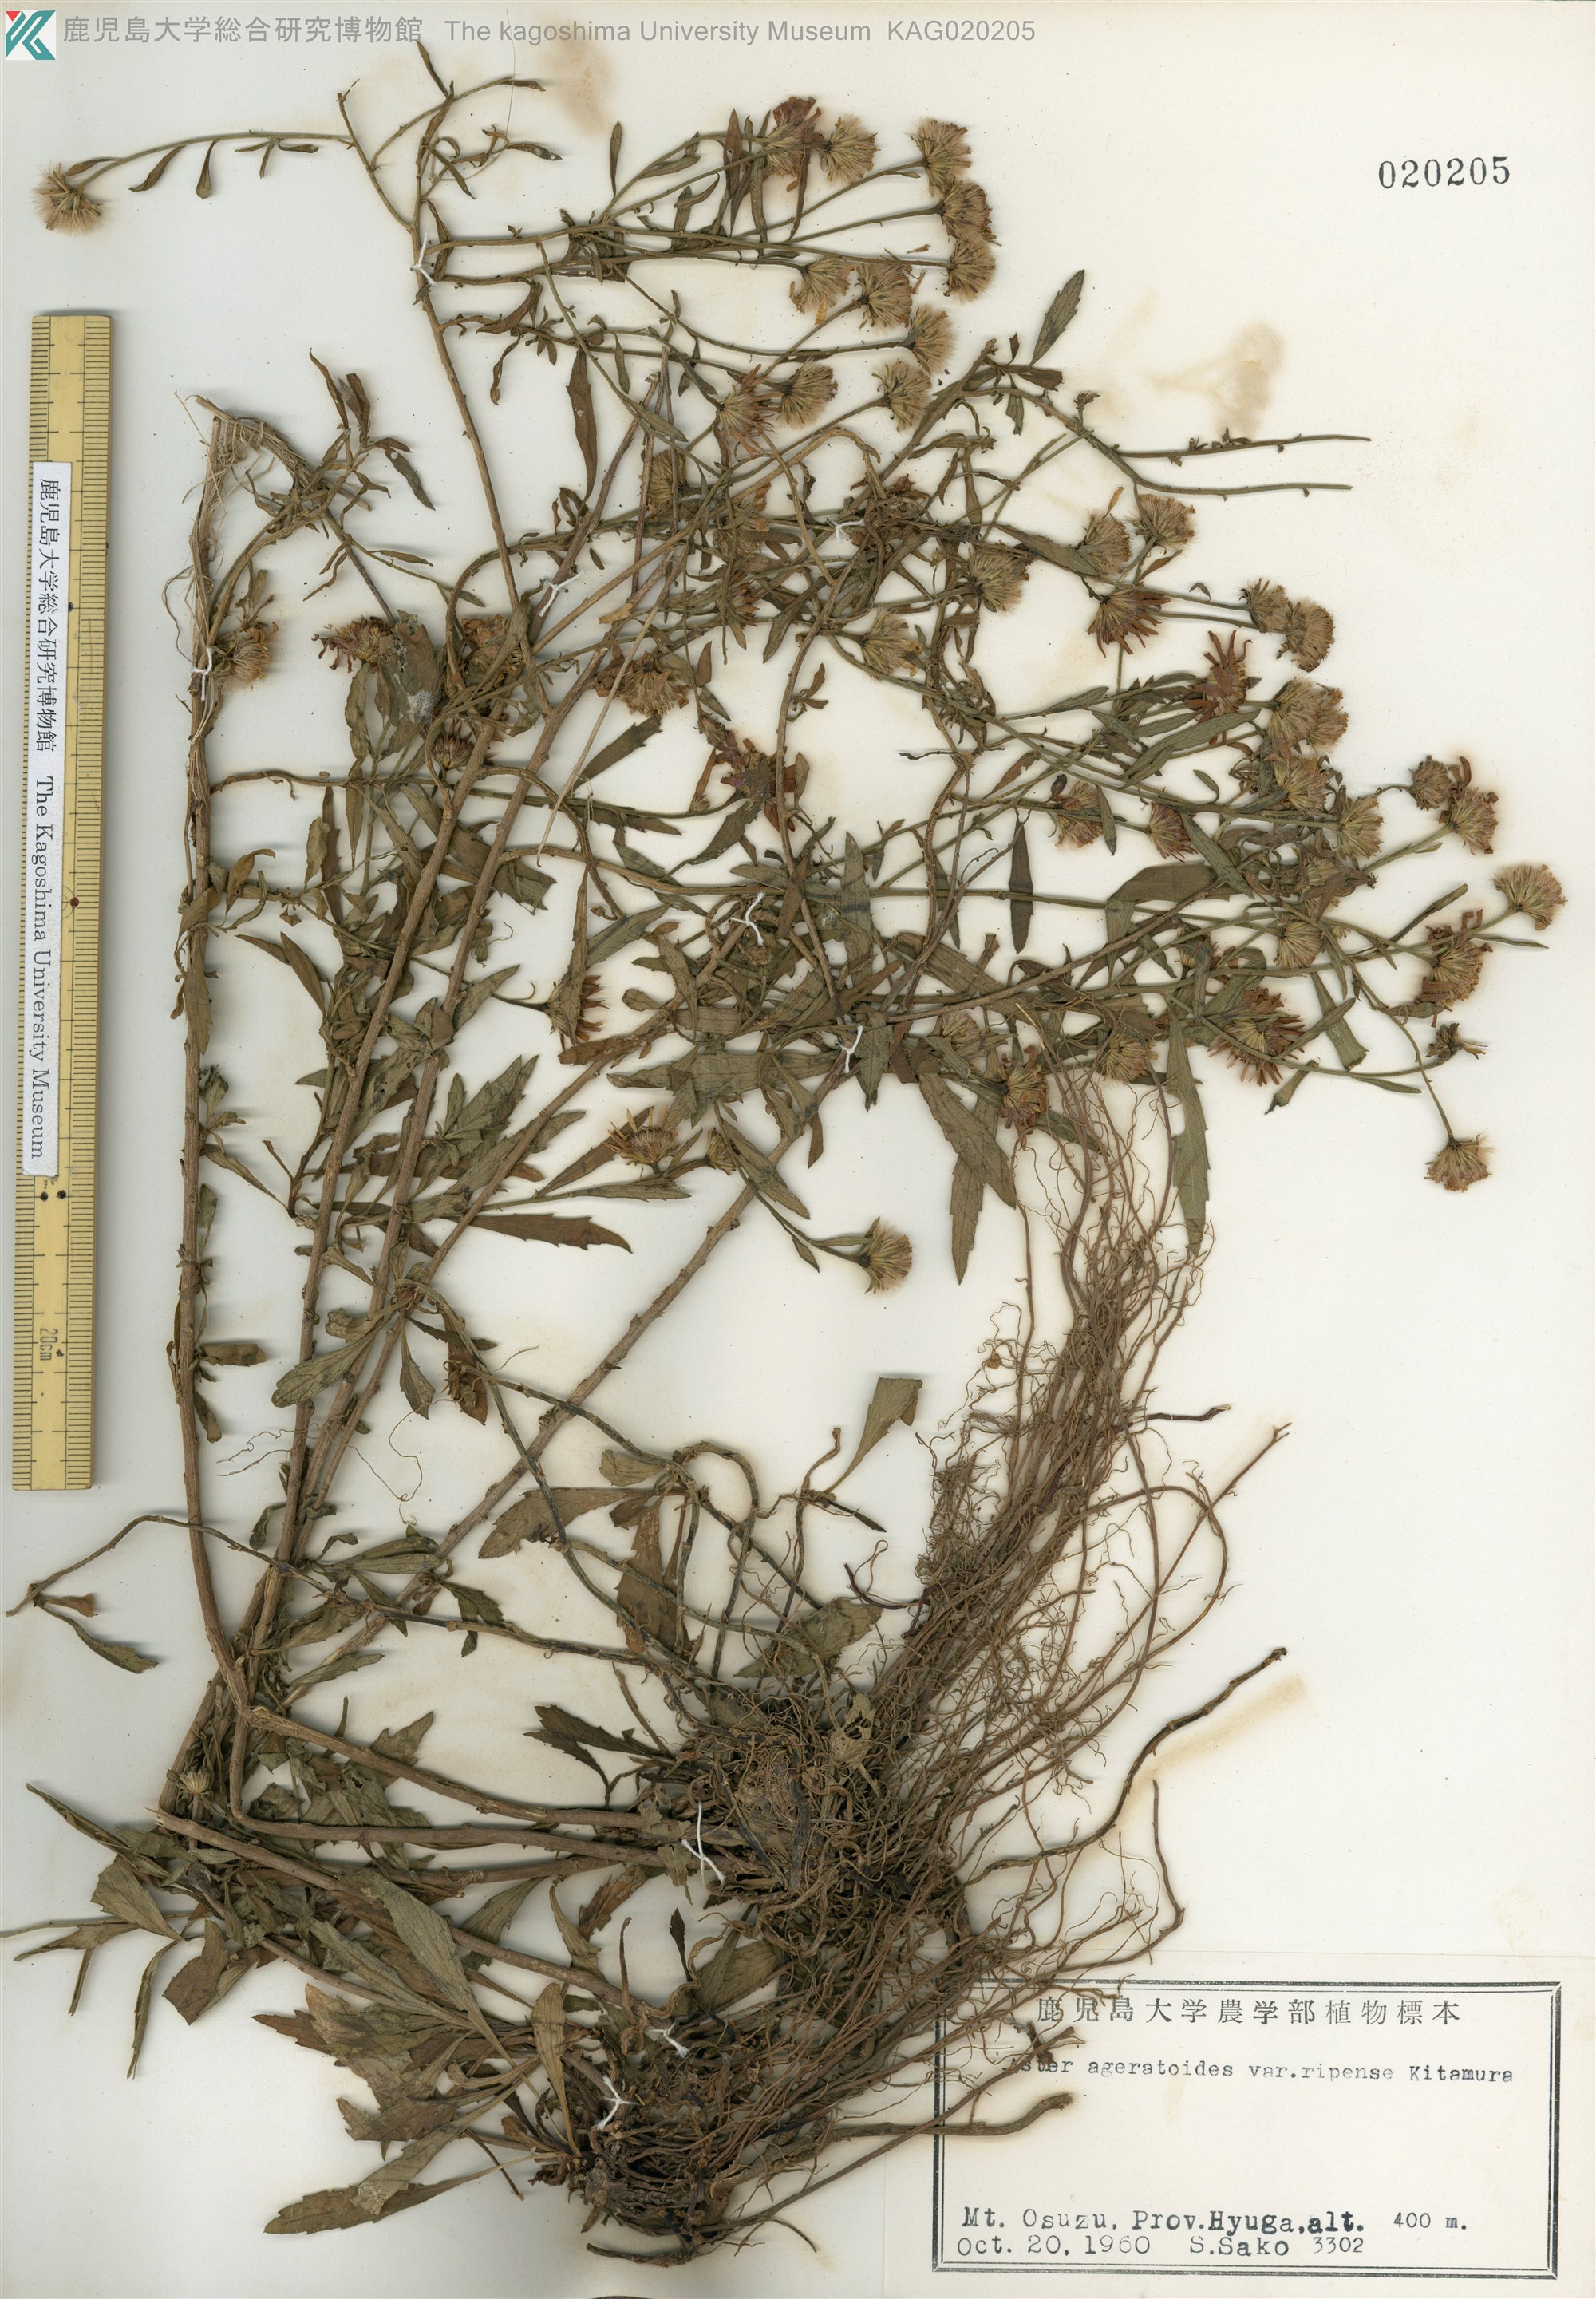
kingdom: Plantae
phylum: Tracheophyta
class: Magnoliopsida
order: Asterales
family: Asteraceae
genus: Aster
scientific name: Aster microcephalus
